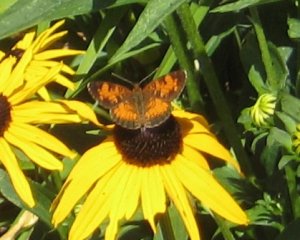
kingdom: Animalia
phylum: Arthropoda
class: Insecta
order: Lepidoptera
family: Nymphalidae
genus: Phyciodes
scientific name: Phyciodes tharos
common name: Northern Crescent
